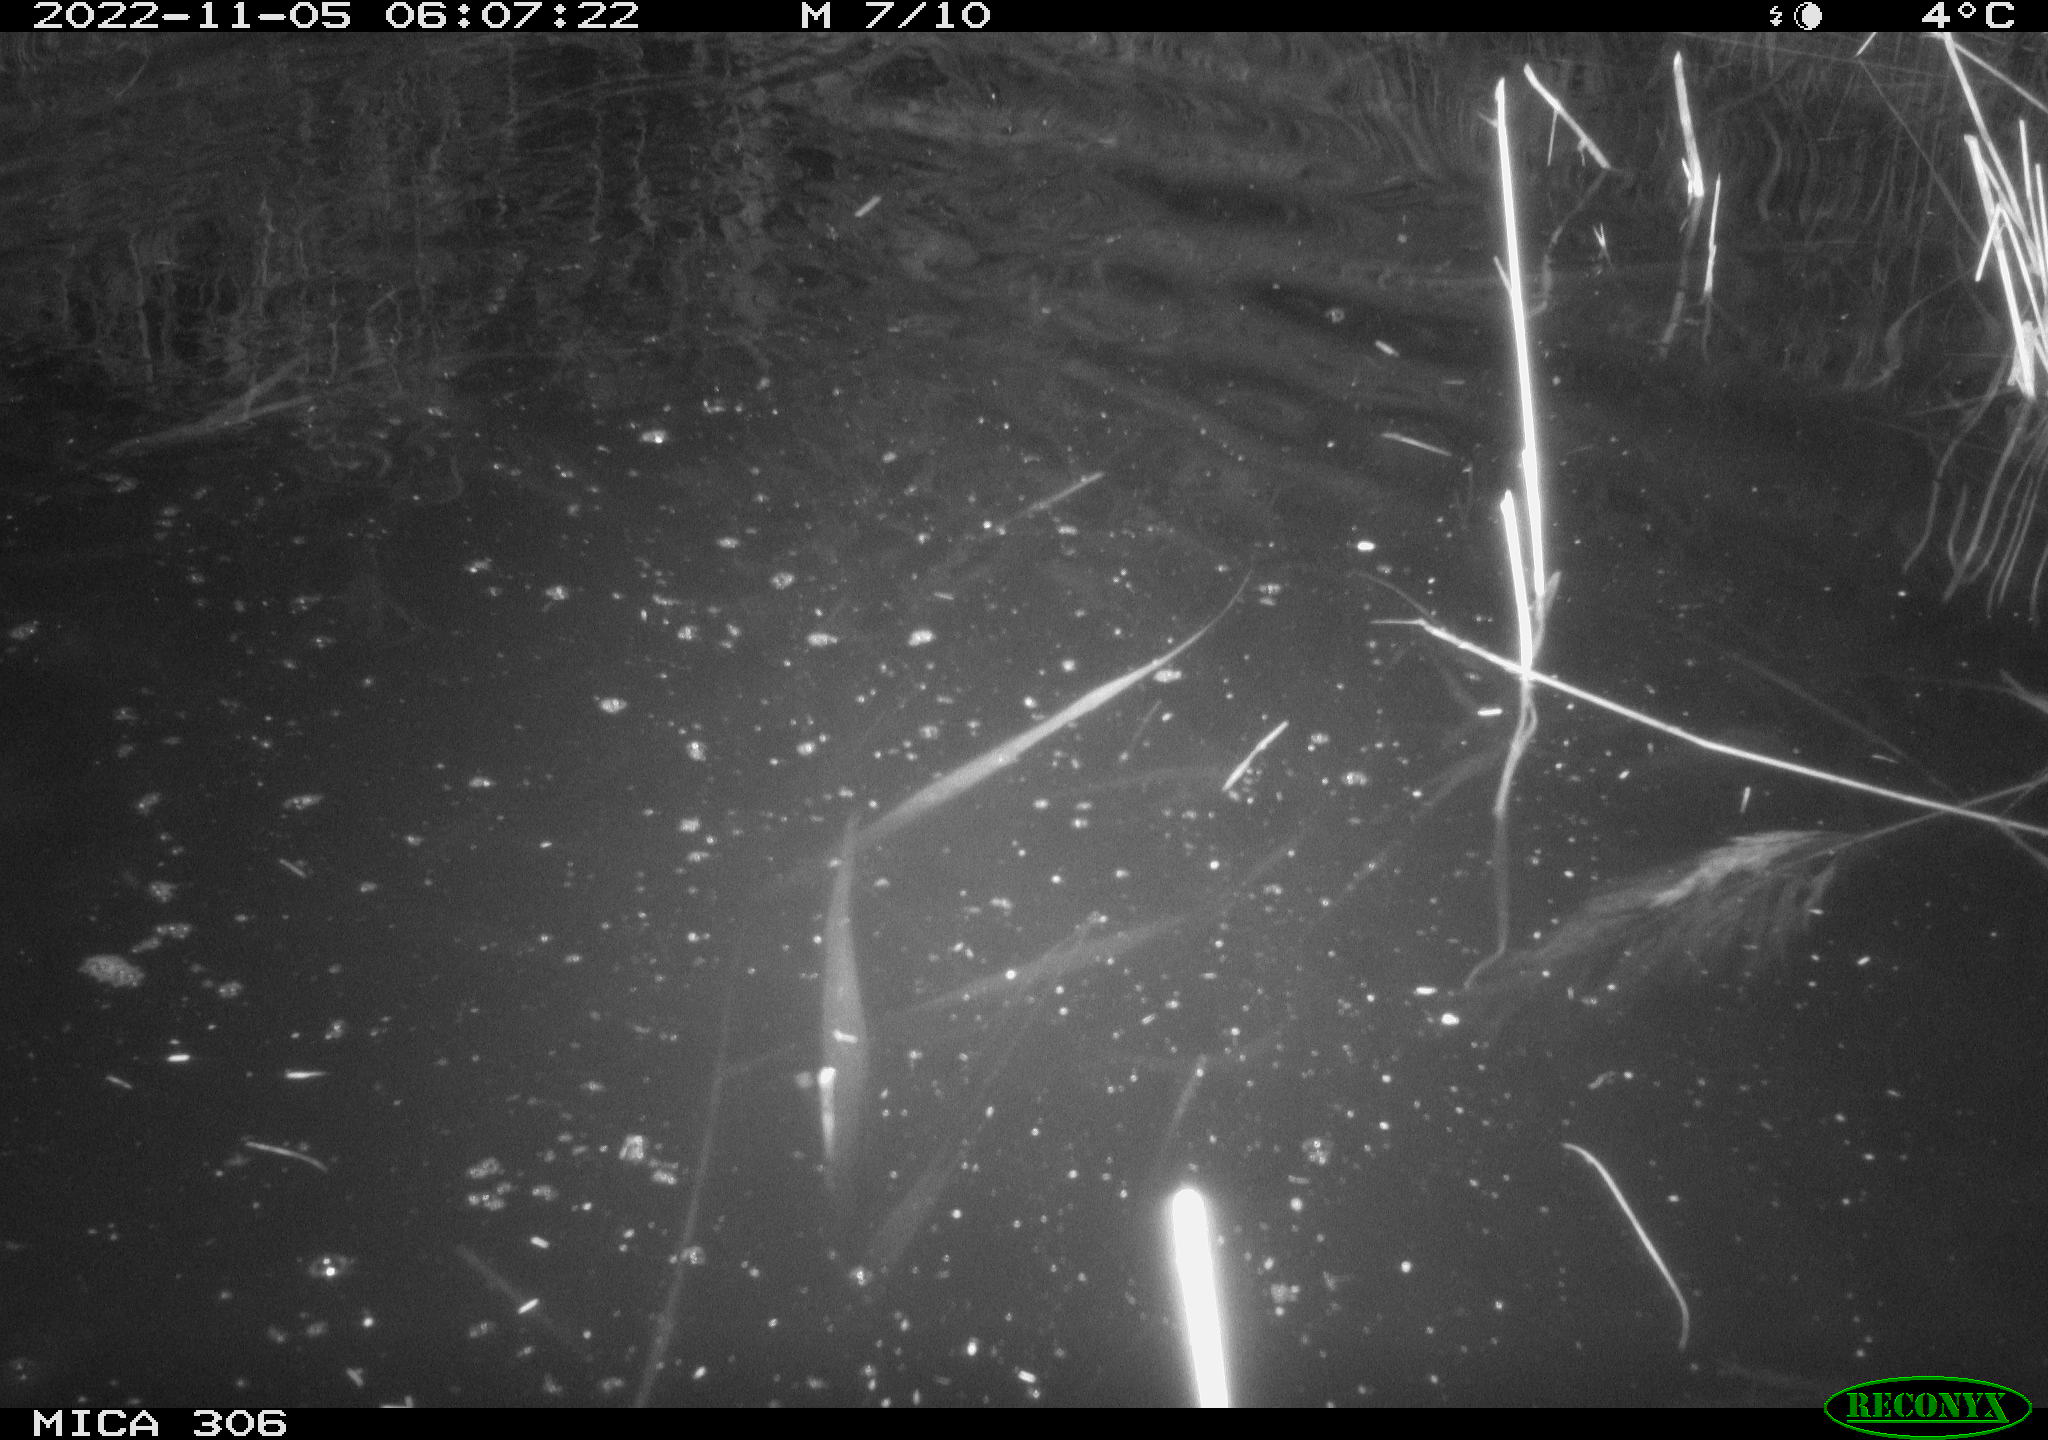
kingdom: Animalia
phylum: Chordata
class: Mammalia
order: Rodentia
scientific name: Rodentia
